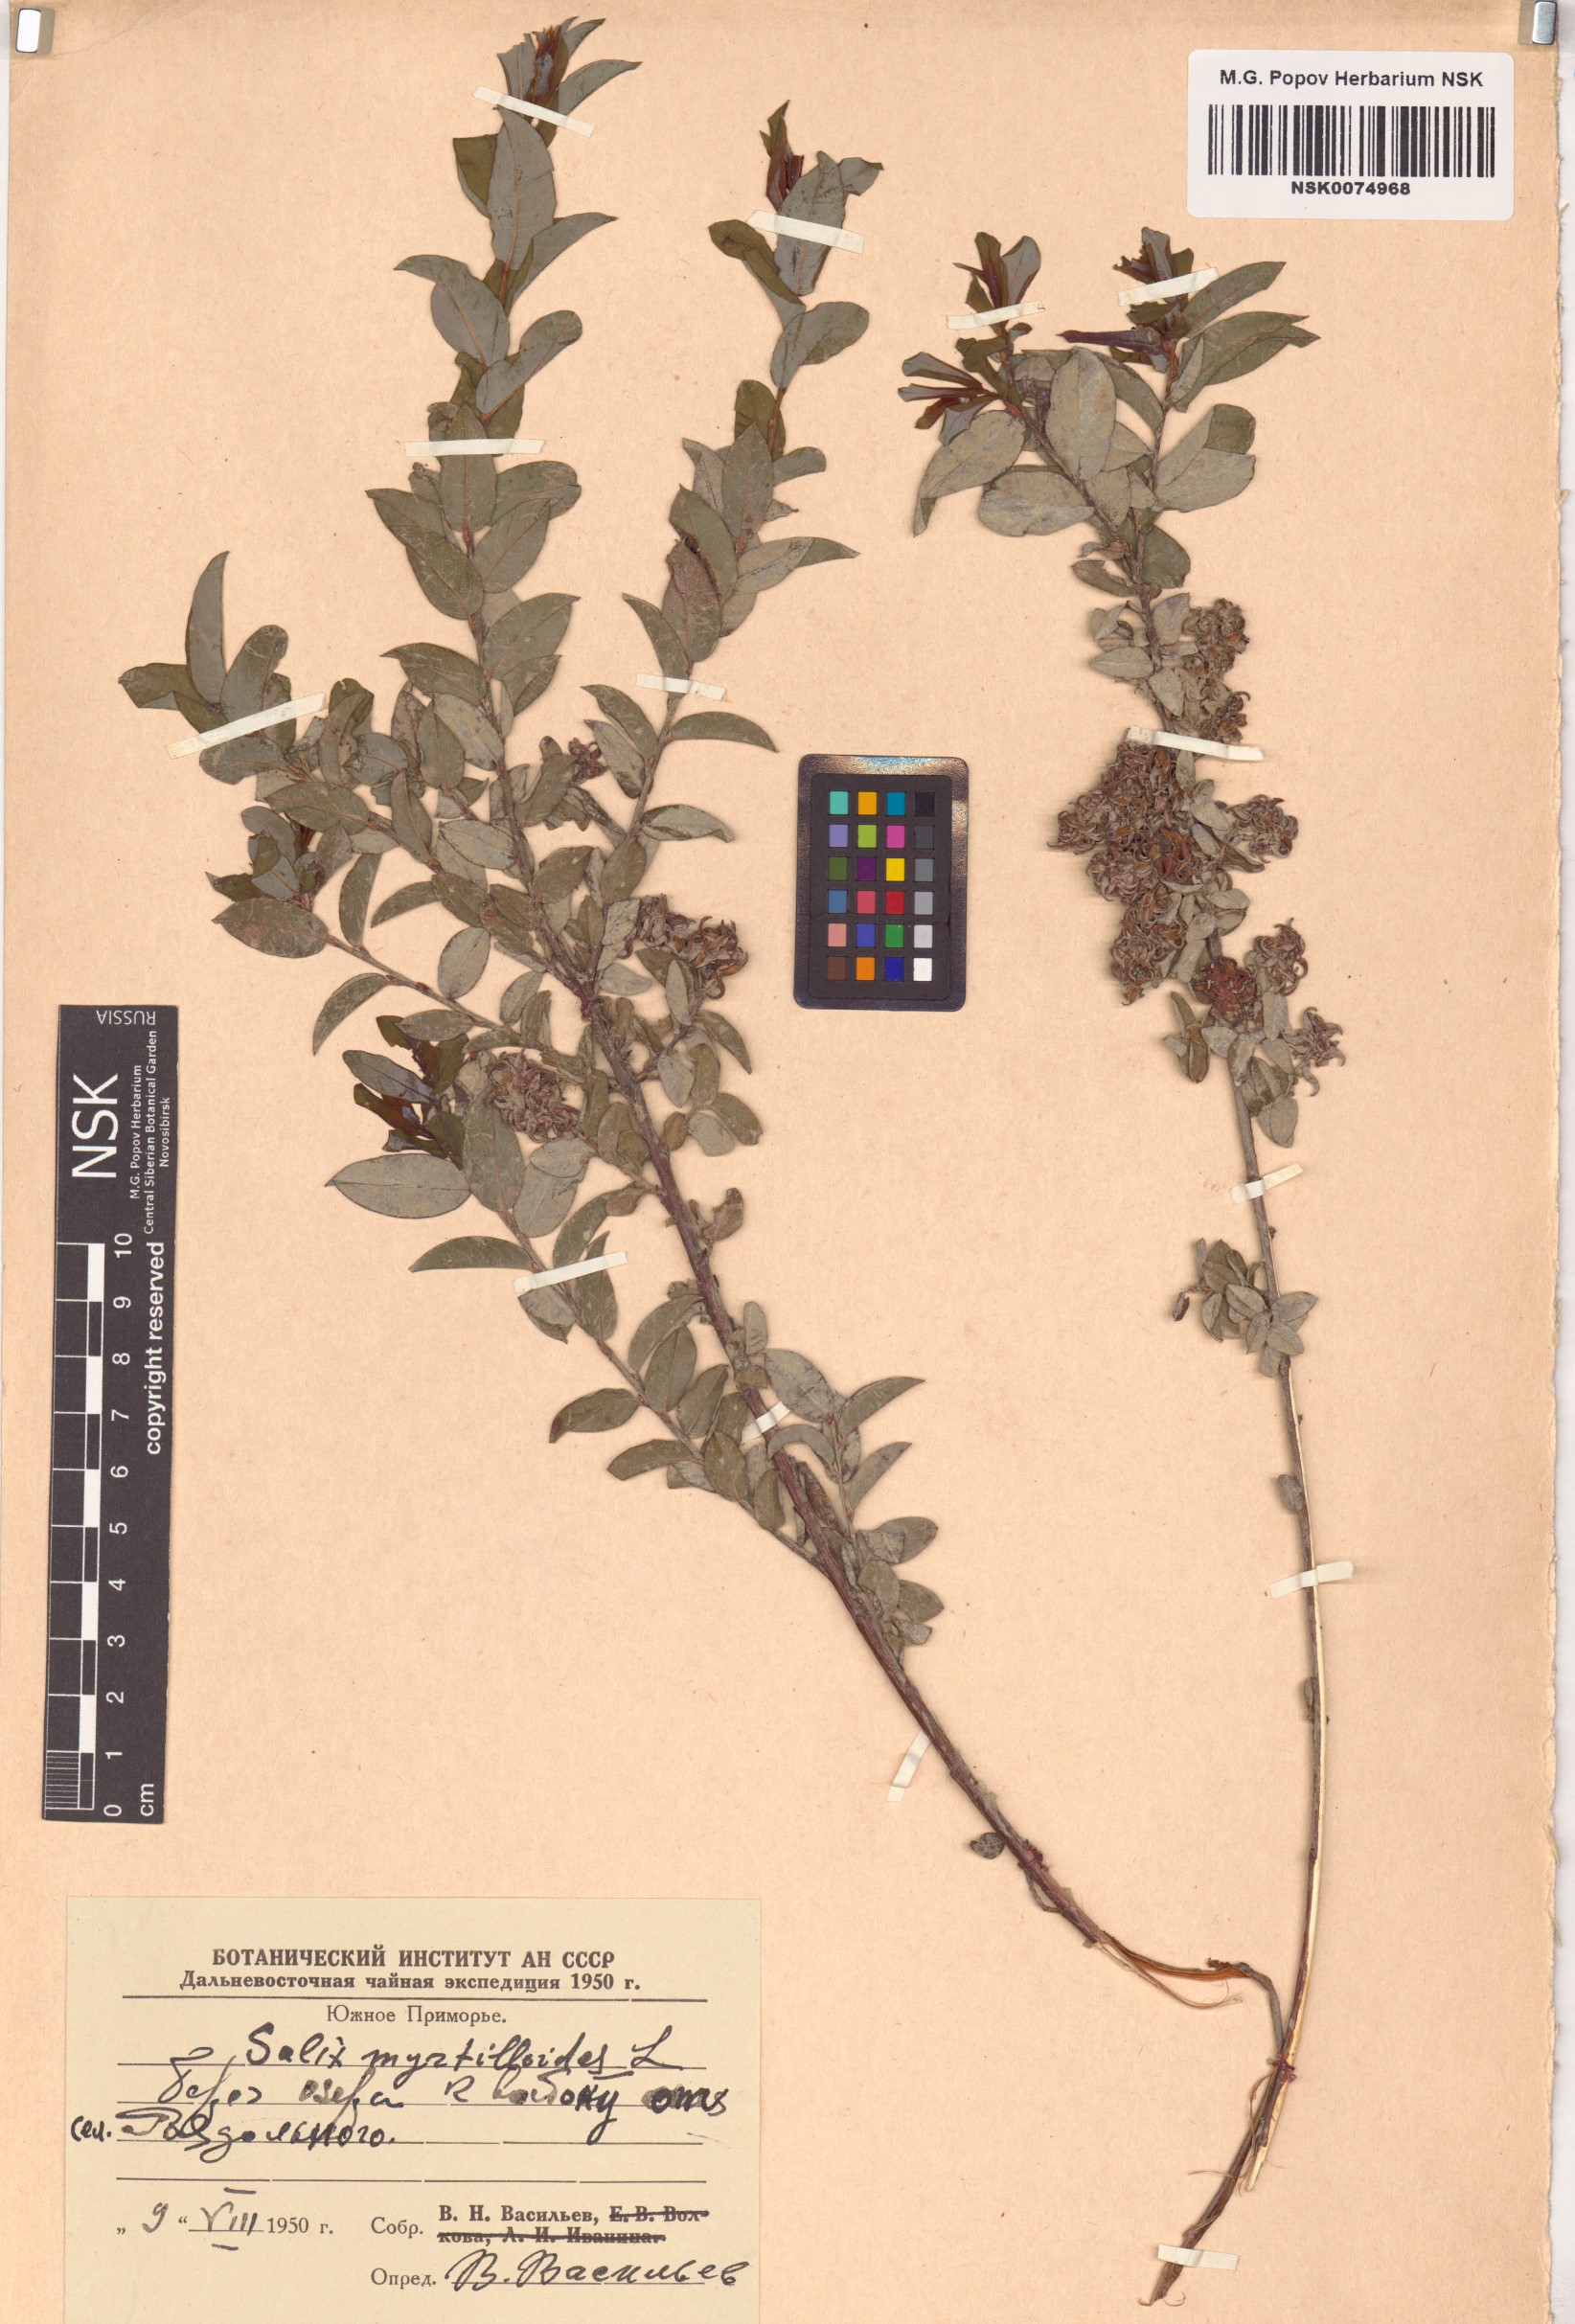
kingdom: Plantae
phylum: Tracheophyta
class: Magnoliopsida
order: Malpighiales
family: Salicaceae
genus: Salix
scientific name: Salix myrtilloides
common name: Myrtle-leaved willow
